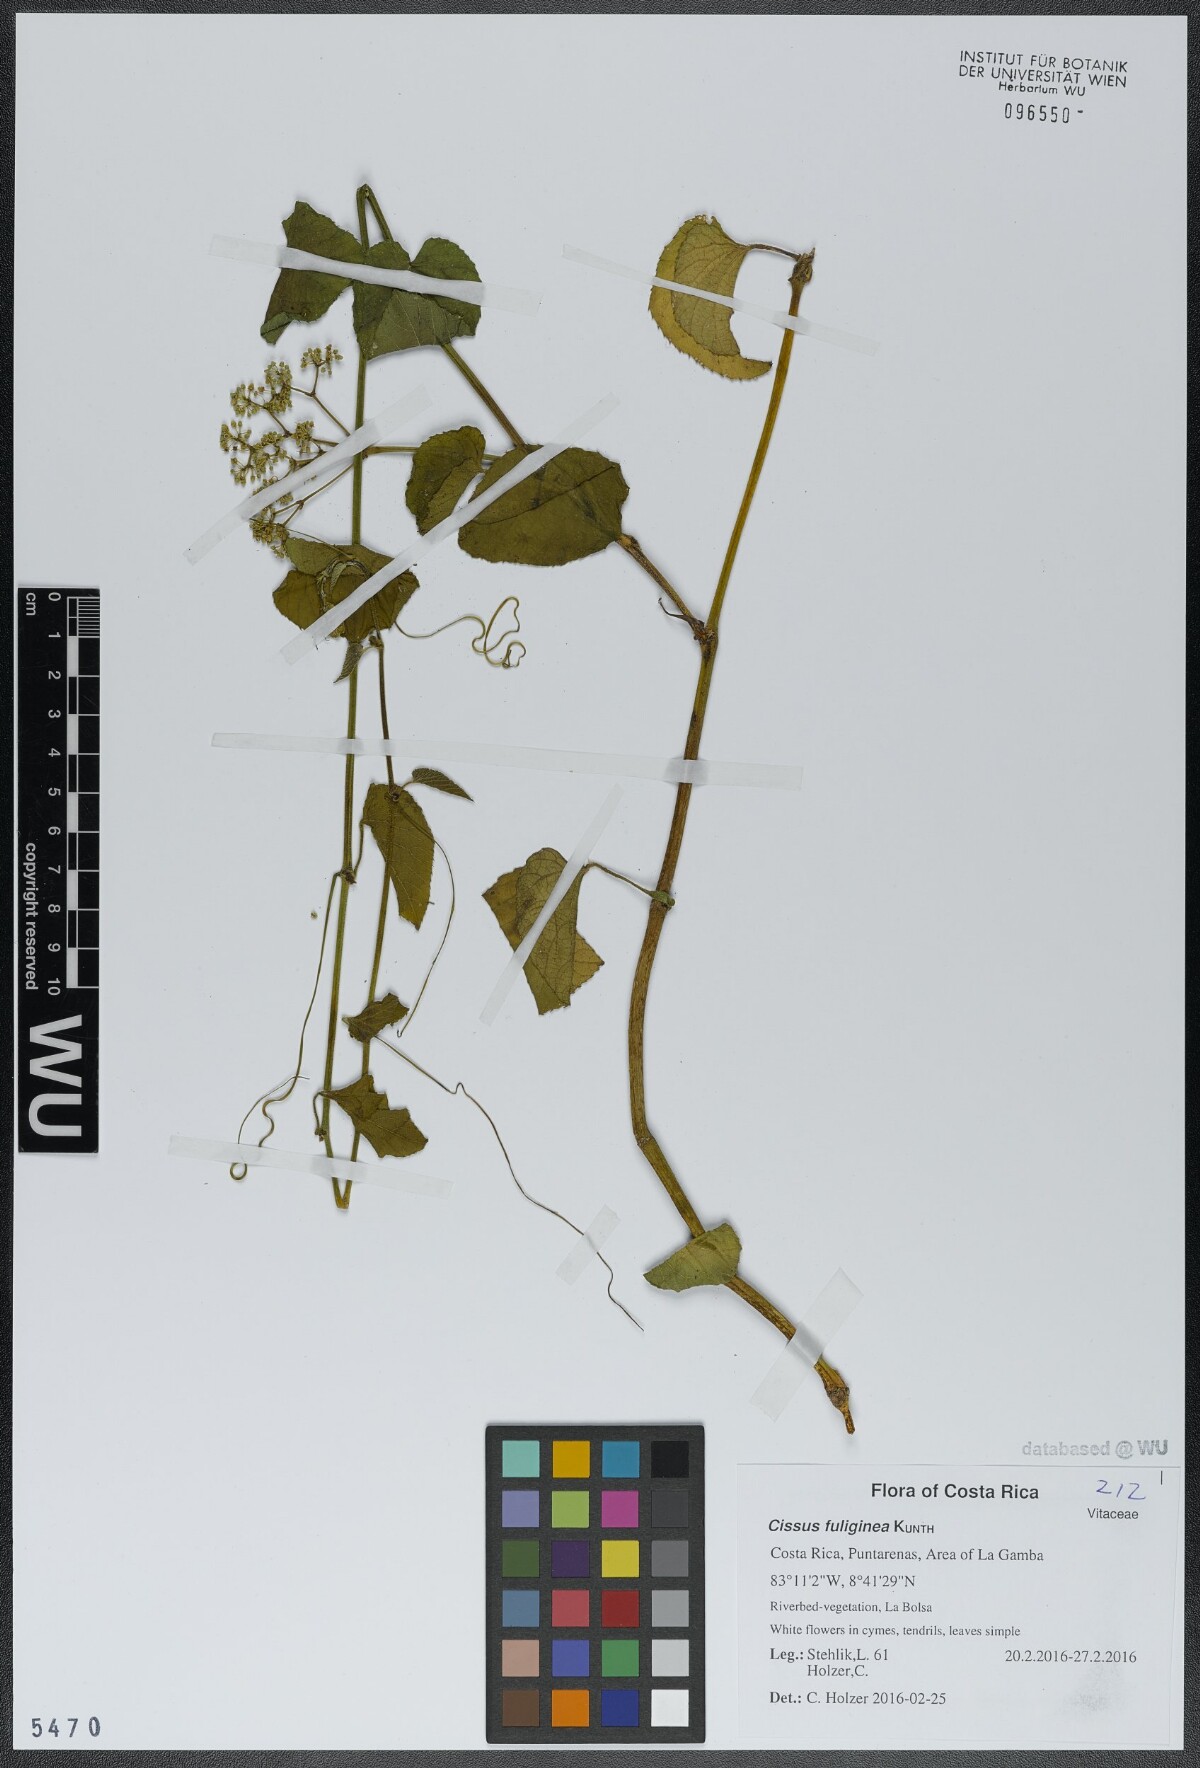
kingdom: Plantae
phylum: Tracheophyta
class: Magnoliopsida
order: Vitales
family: Vitaceae
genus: Cissus
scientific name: Cissus fuliginea
